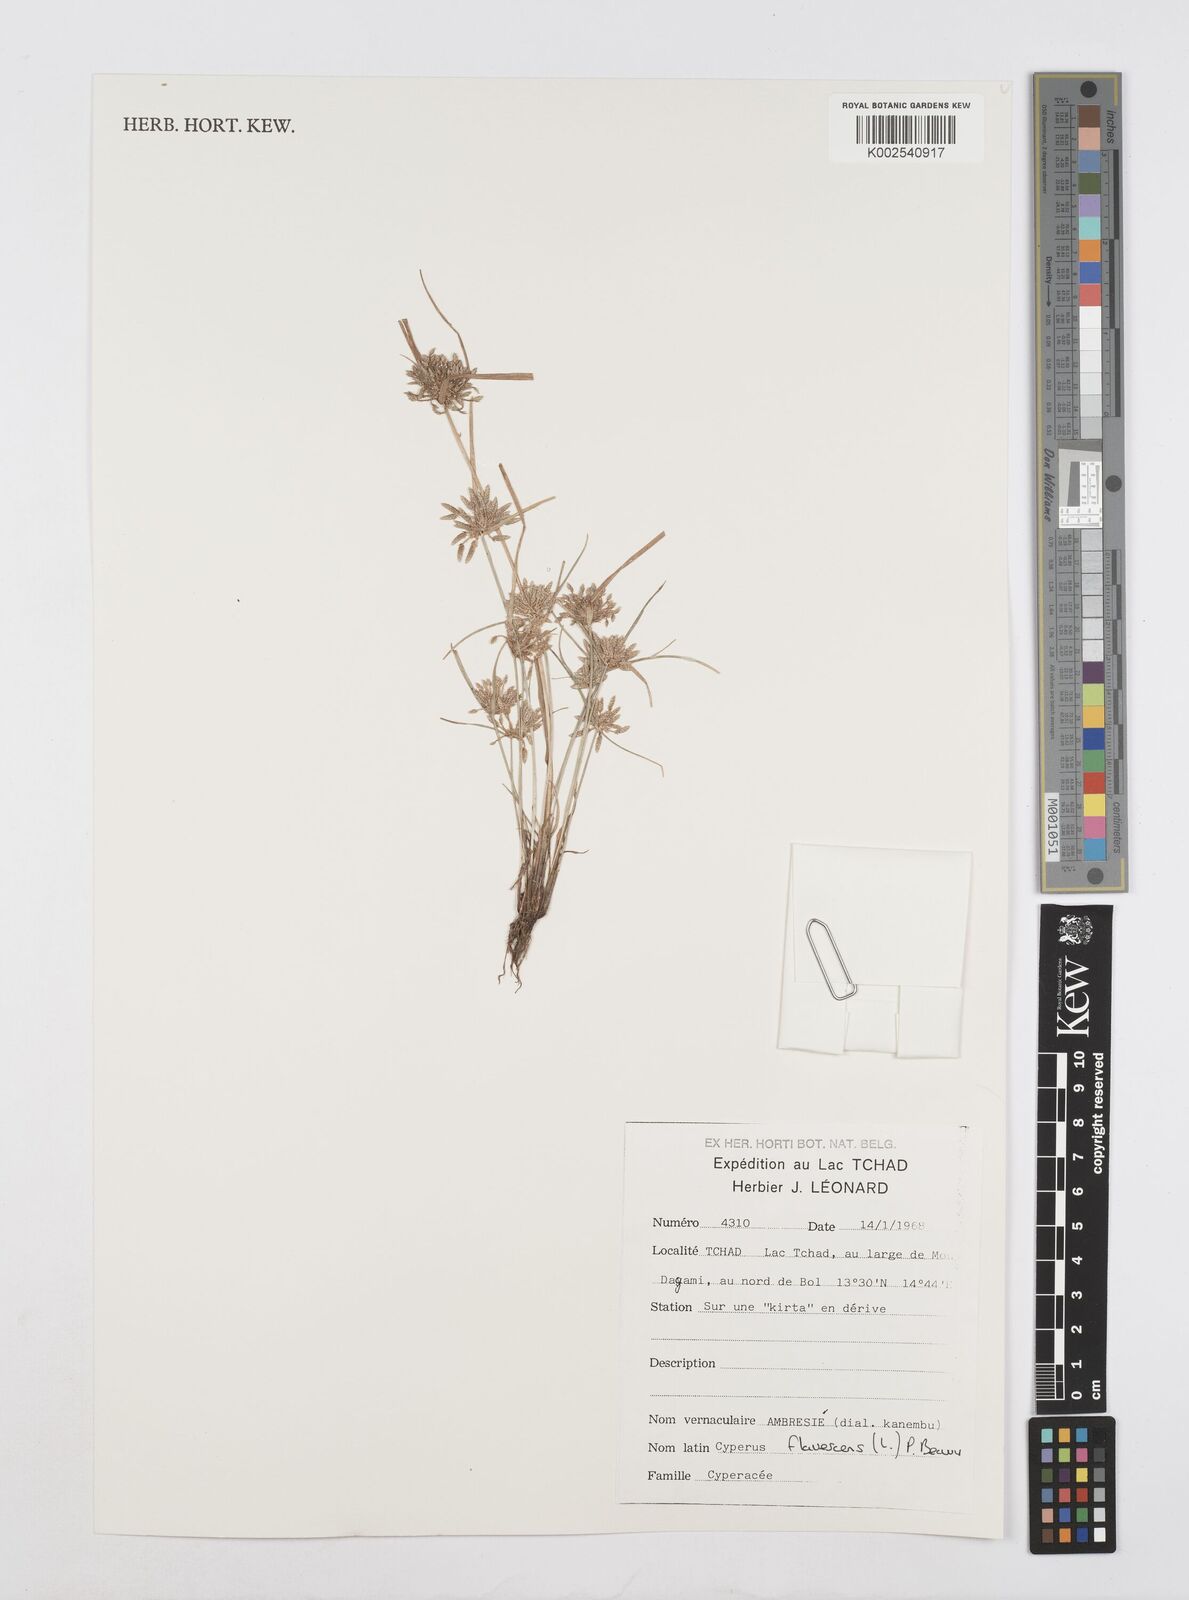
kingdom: Plantae
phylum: Tracheophyta
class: Liliopsida
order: Poales
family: Cyperaceae
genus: Cyperus
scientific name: Cyperus flavescens
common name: Yellow galingale
